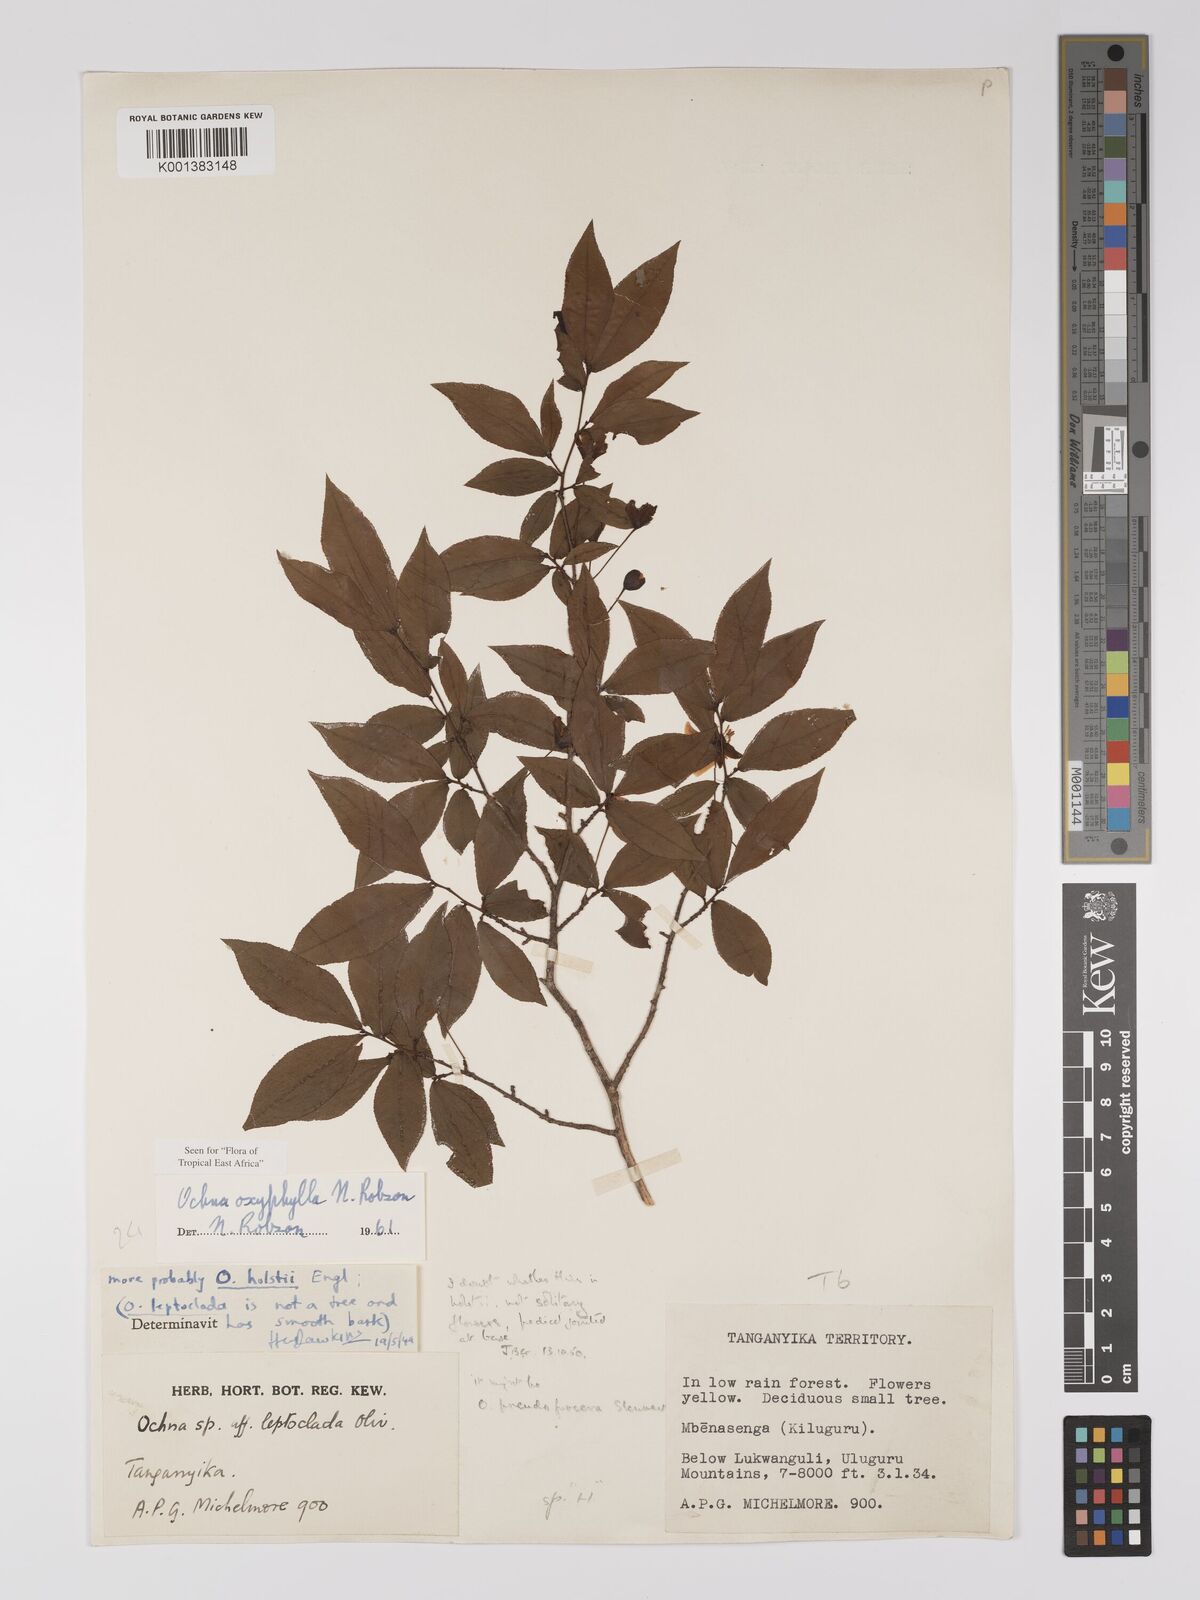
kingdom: Plantae
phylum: Tracheophyta
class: Magnoliopsida
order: Malpighiales
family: Ochnaceae
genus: Ochna
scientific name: Ochna oxyphylla
